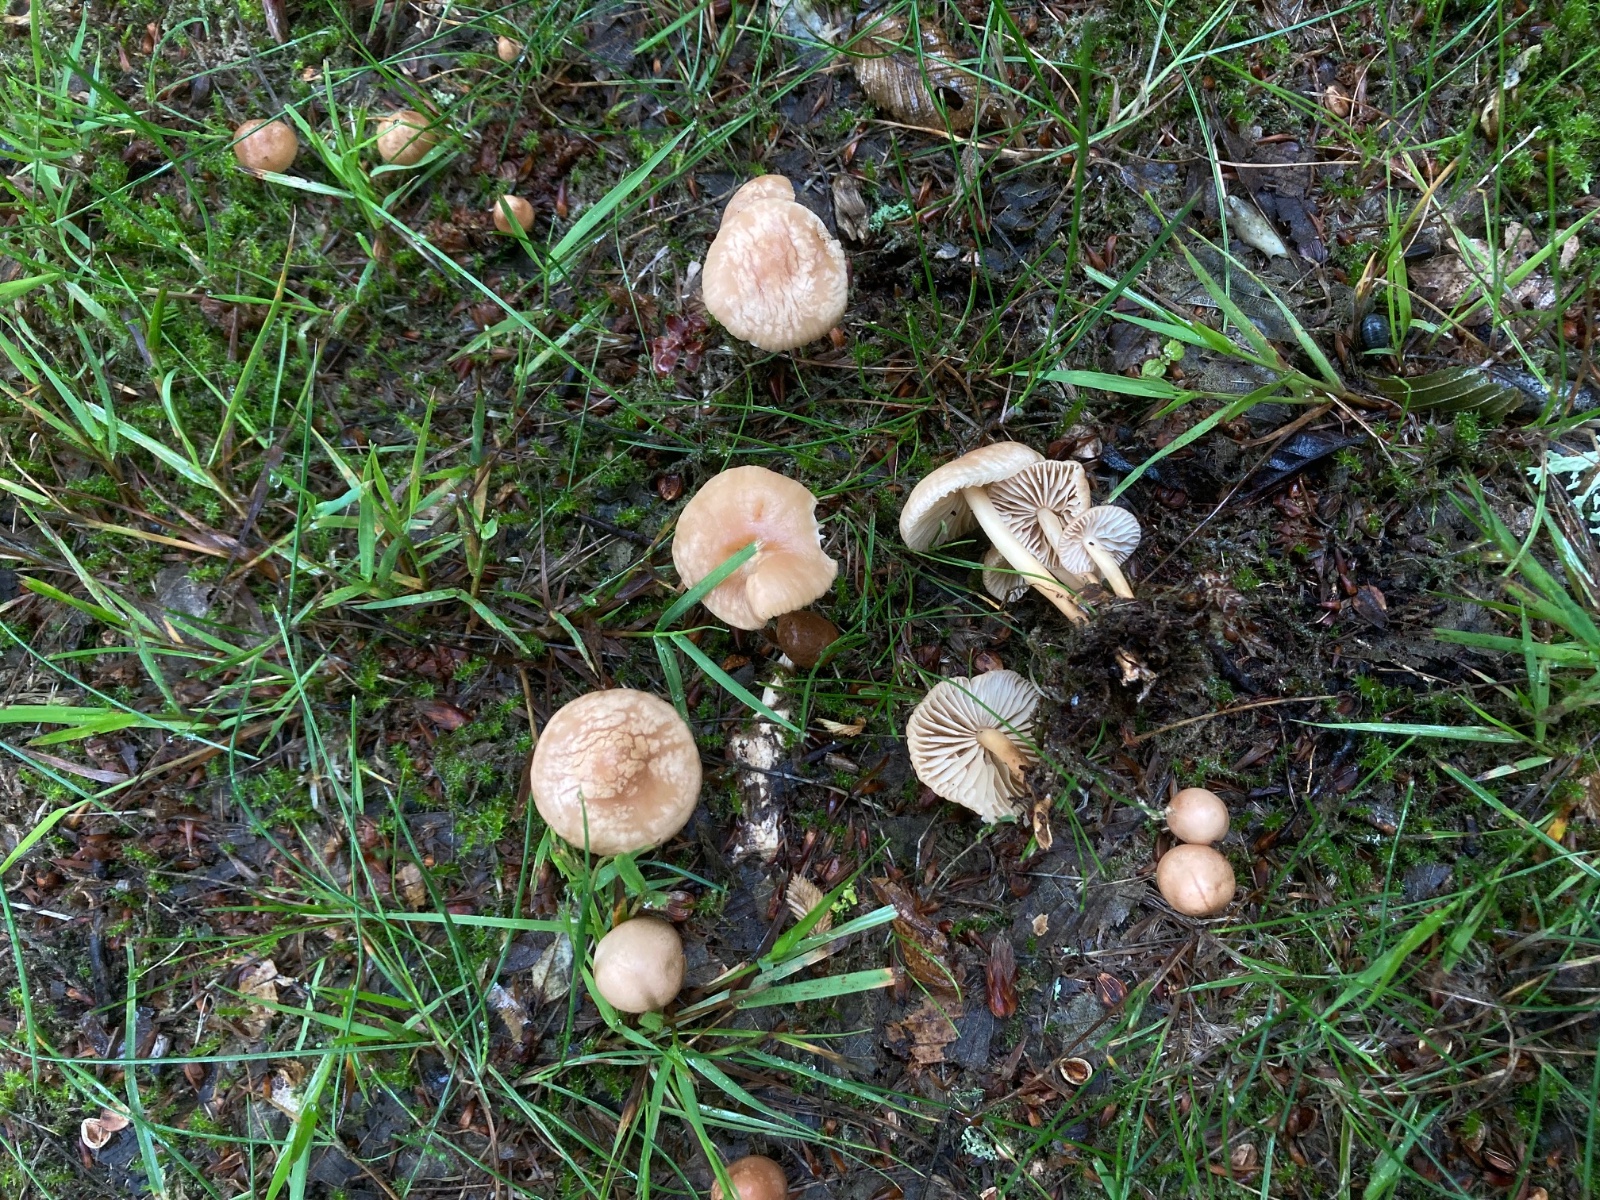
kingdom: Fungi
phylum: Basidiomycota
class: Agaricomycetes
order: Agaricales
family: Marasmiaceae
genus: Marasmius
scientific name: Marasmius oreades
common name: elledans-bruskhat
